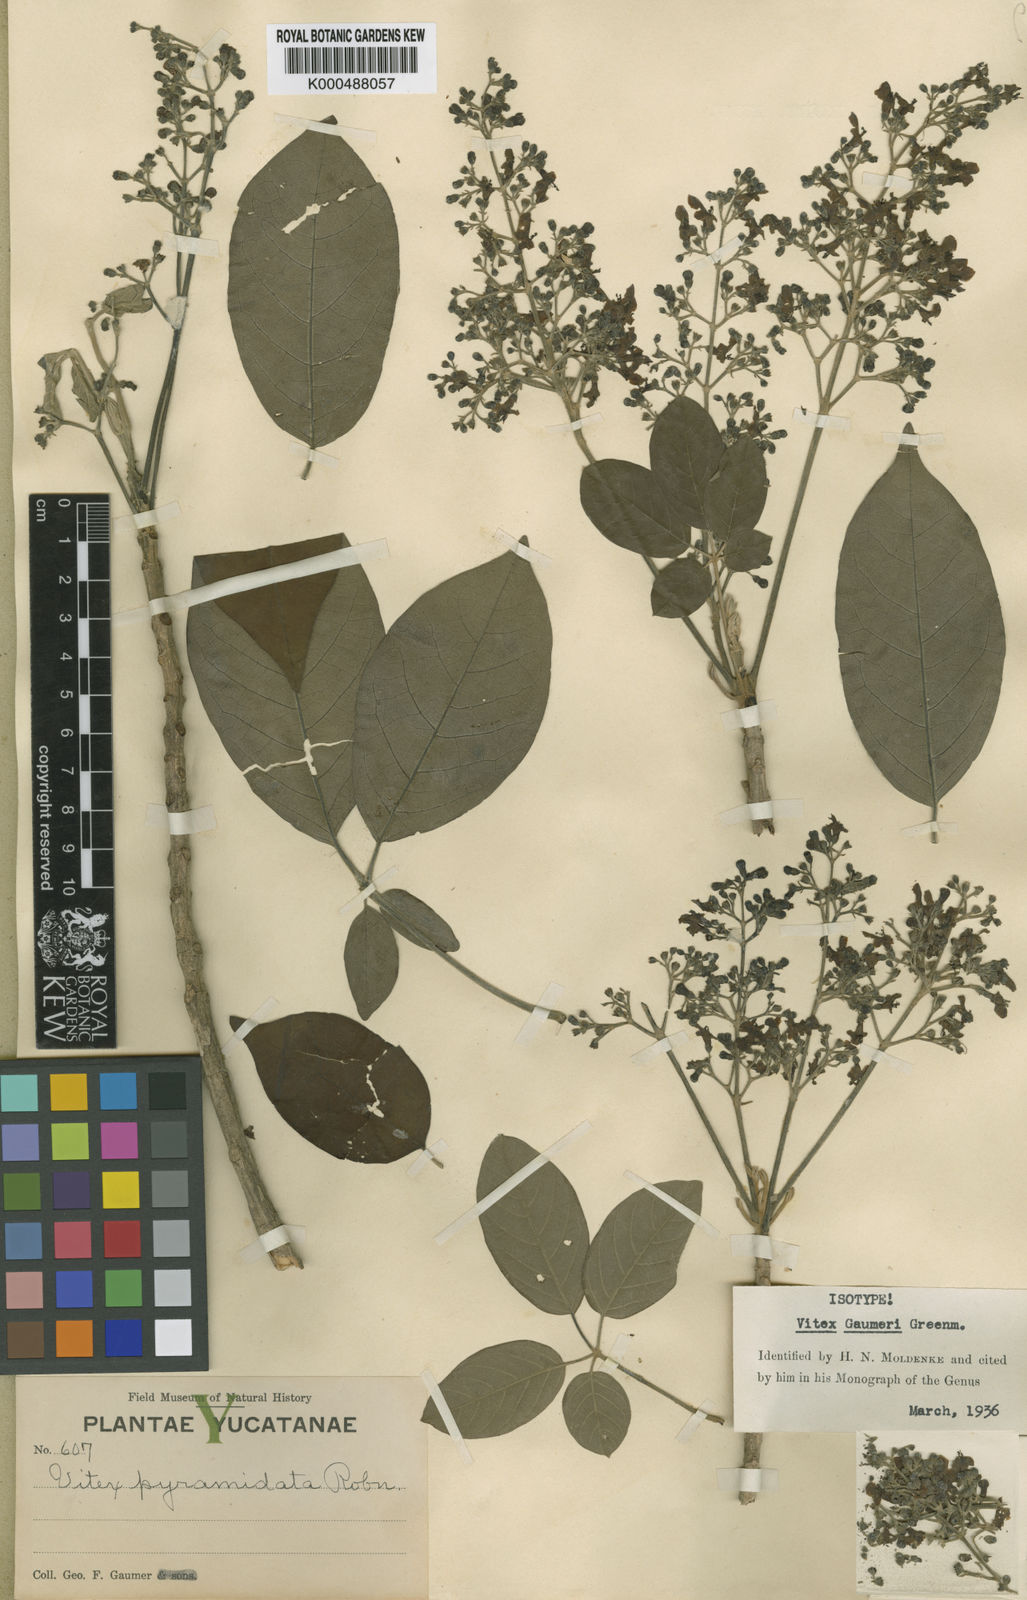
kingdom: Plantae
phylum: Tracheophyta
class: Magnoliopsida
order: Lamiales
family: Lamiaceae
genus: Vitex
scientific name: Vitex gaumeri
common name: Fiddlewood
